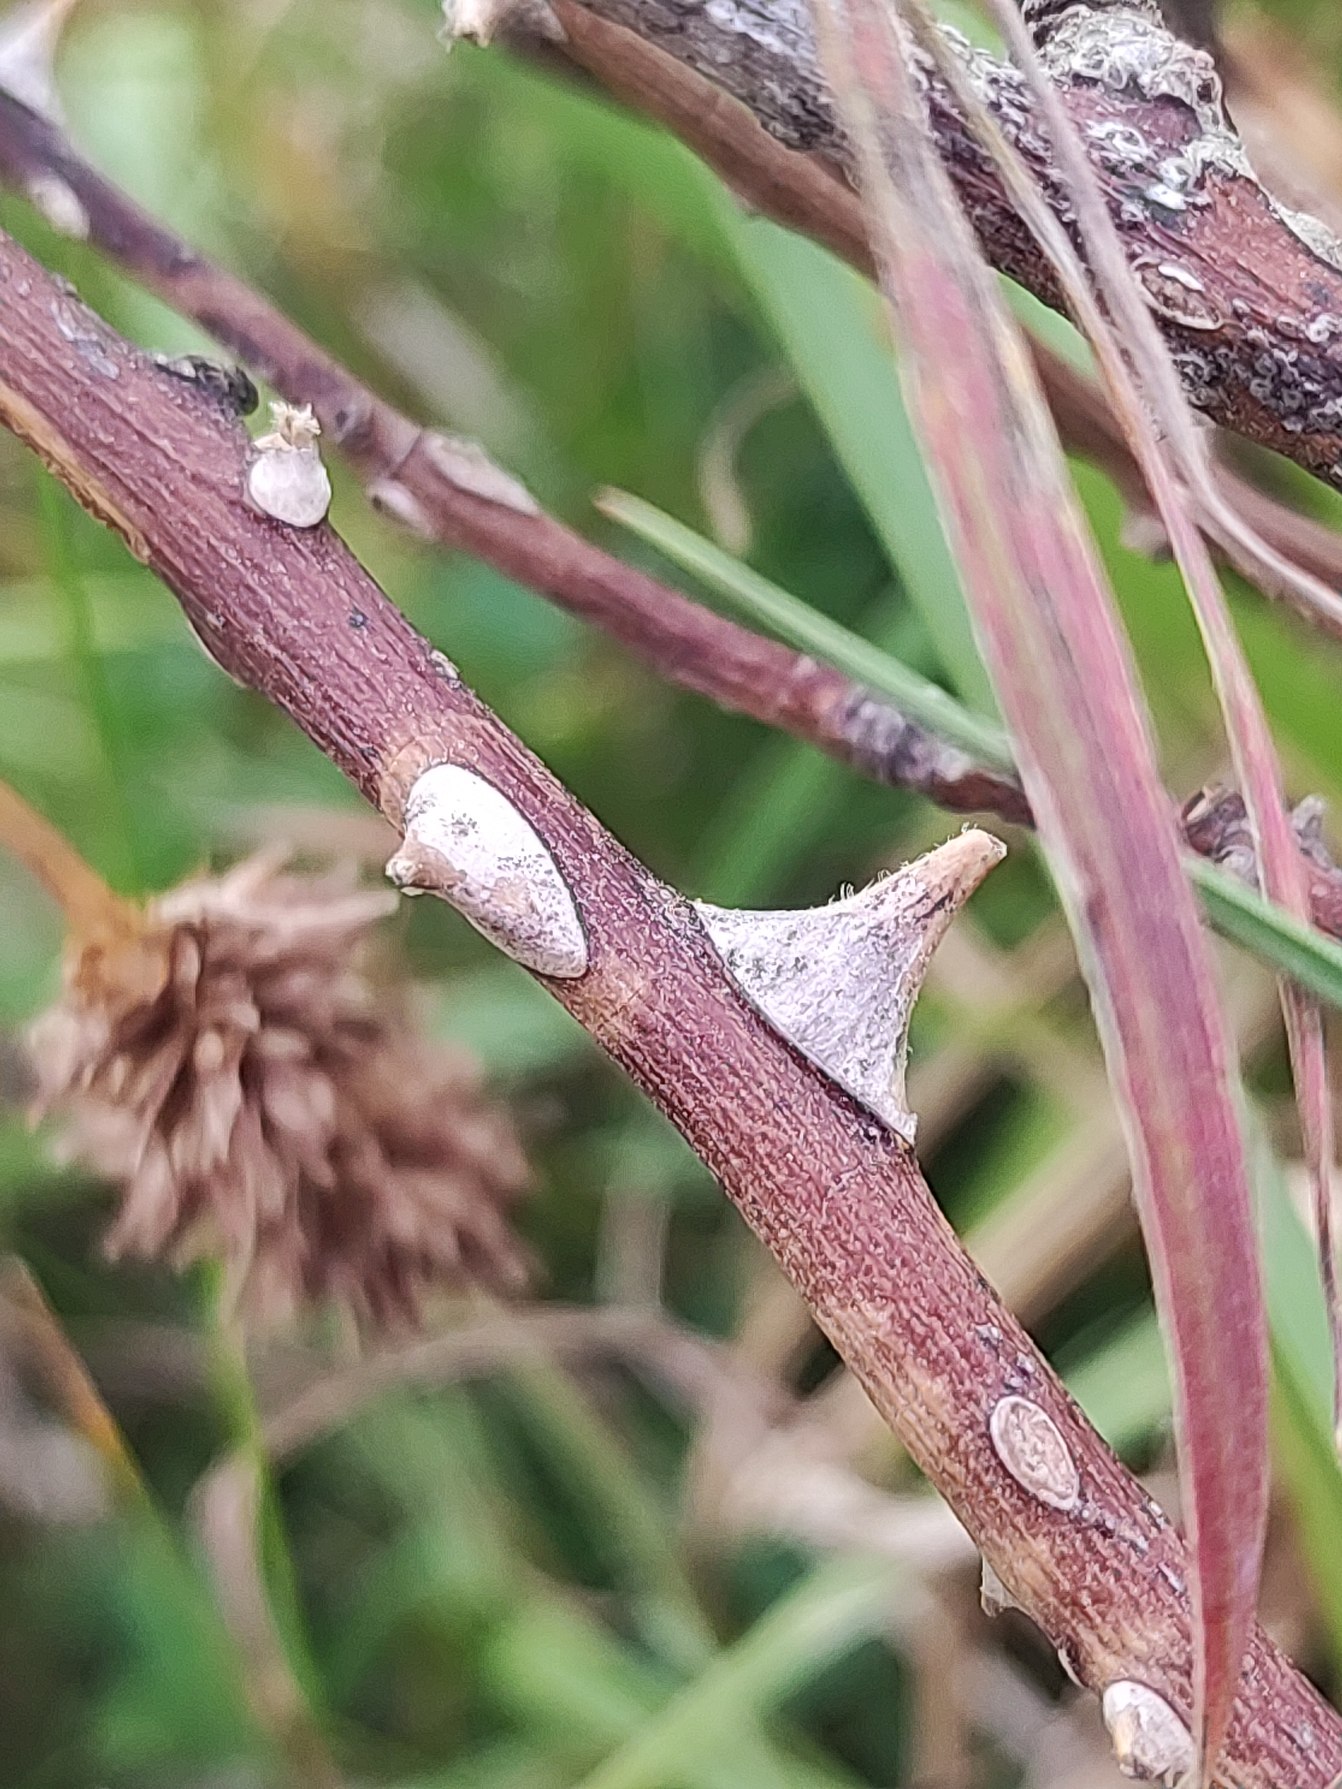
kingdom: Plantae
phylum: Tracheophyta
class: Magnoliopsida
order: Rosales
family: Rosaceae
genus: Rosa
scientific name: Rosa
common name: Roseslægten
